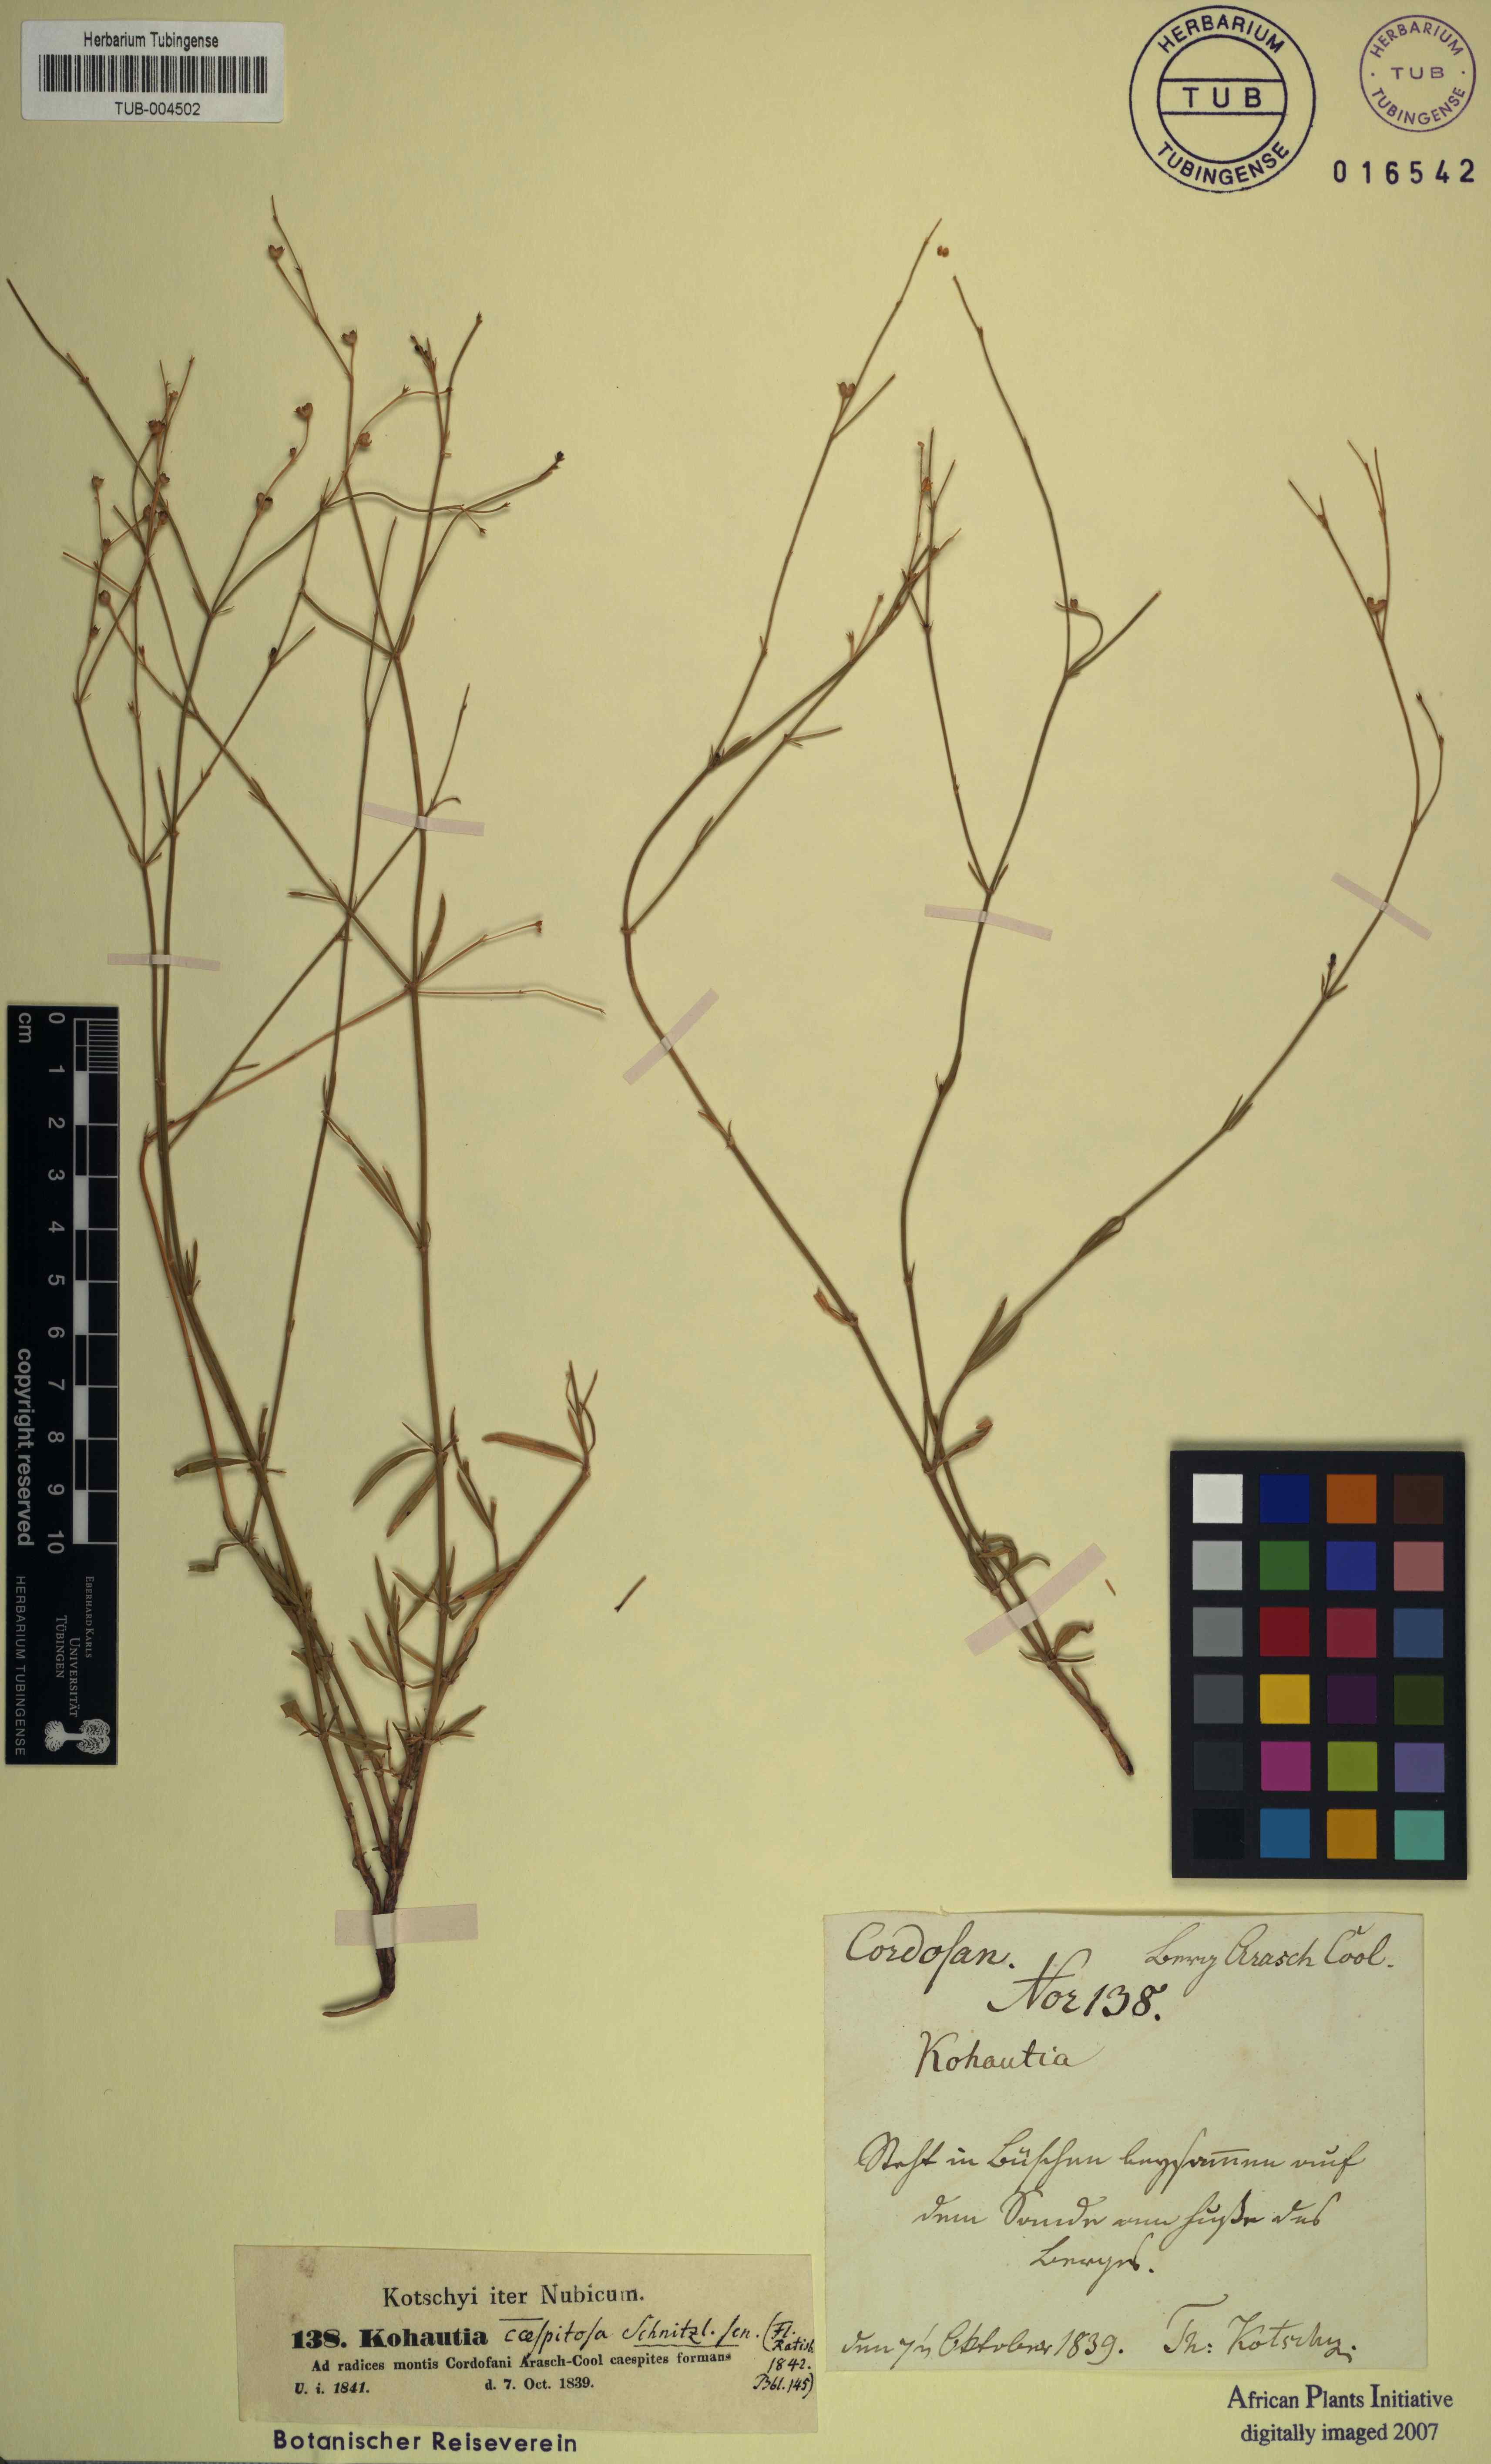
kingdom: Plantae
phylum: Tracheophyta
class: Magnoliopsida
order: Gentianales
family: Rubiaceae
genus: Kohautia
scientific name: Kohautia caespitosa
